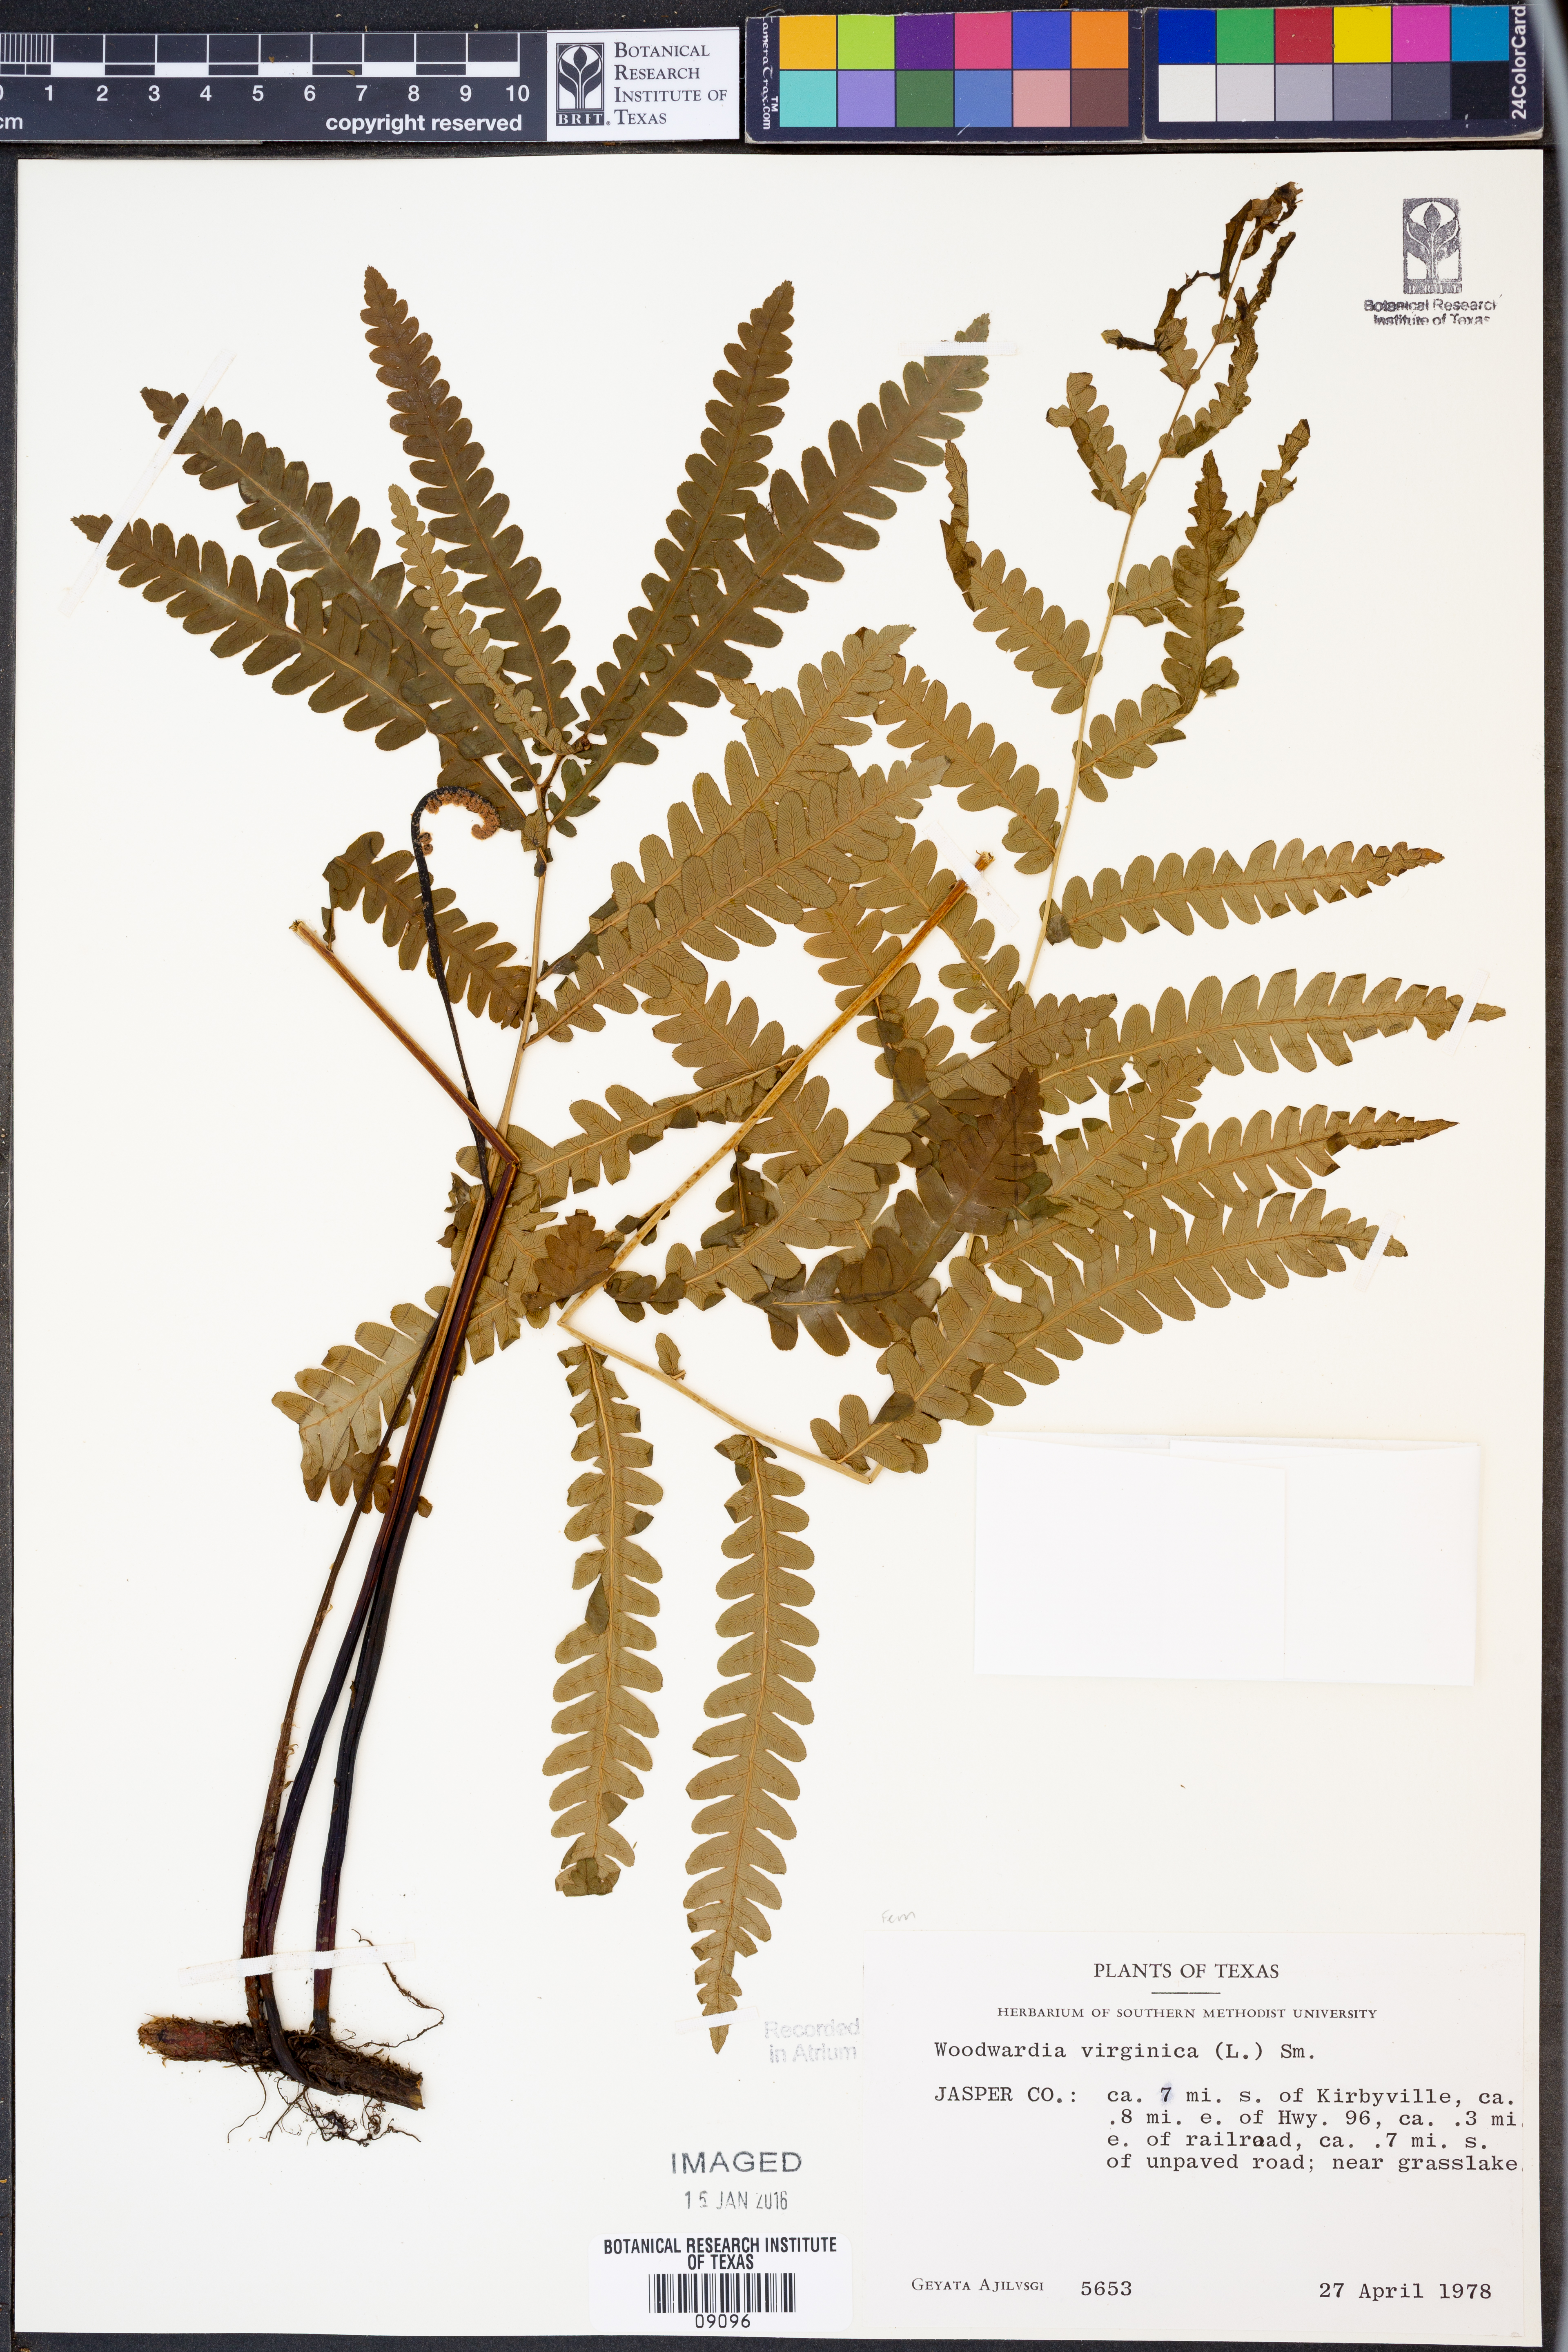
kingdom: Plantae
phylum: Tracheophyta
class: Polypodiopsida
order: Polypodiales
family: Blechnaceae
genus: Anchistea
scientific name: Anchistea virginica
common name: Virginia chain fern
